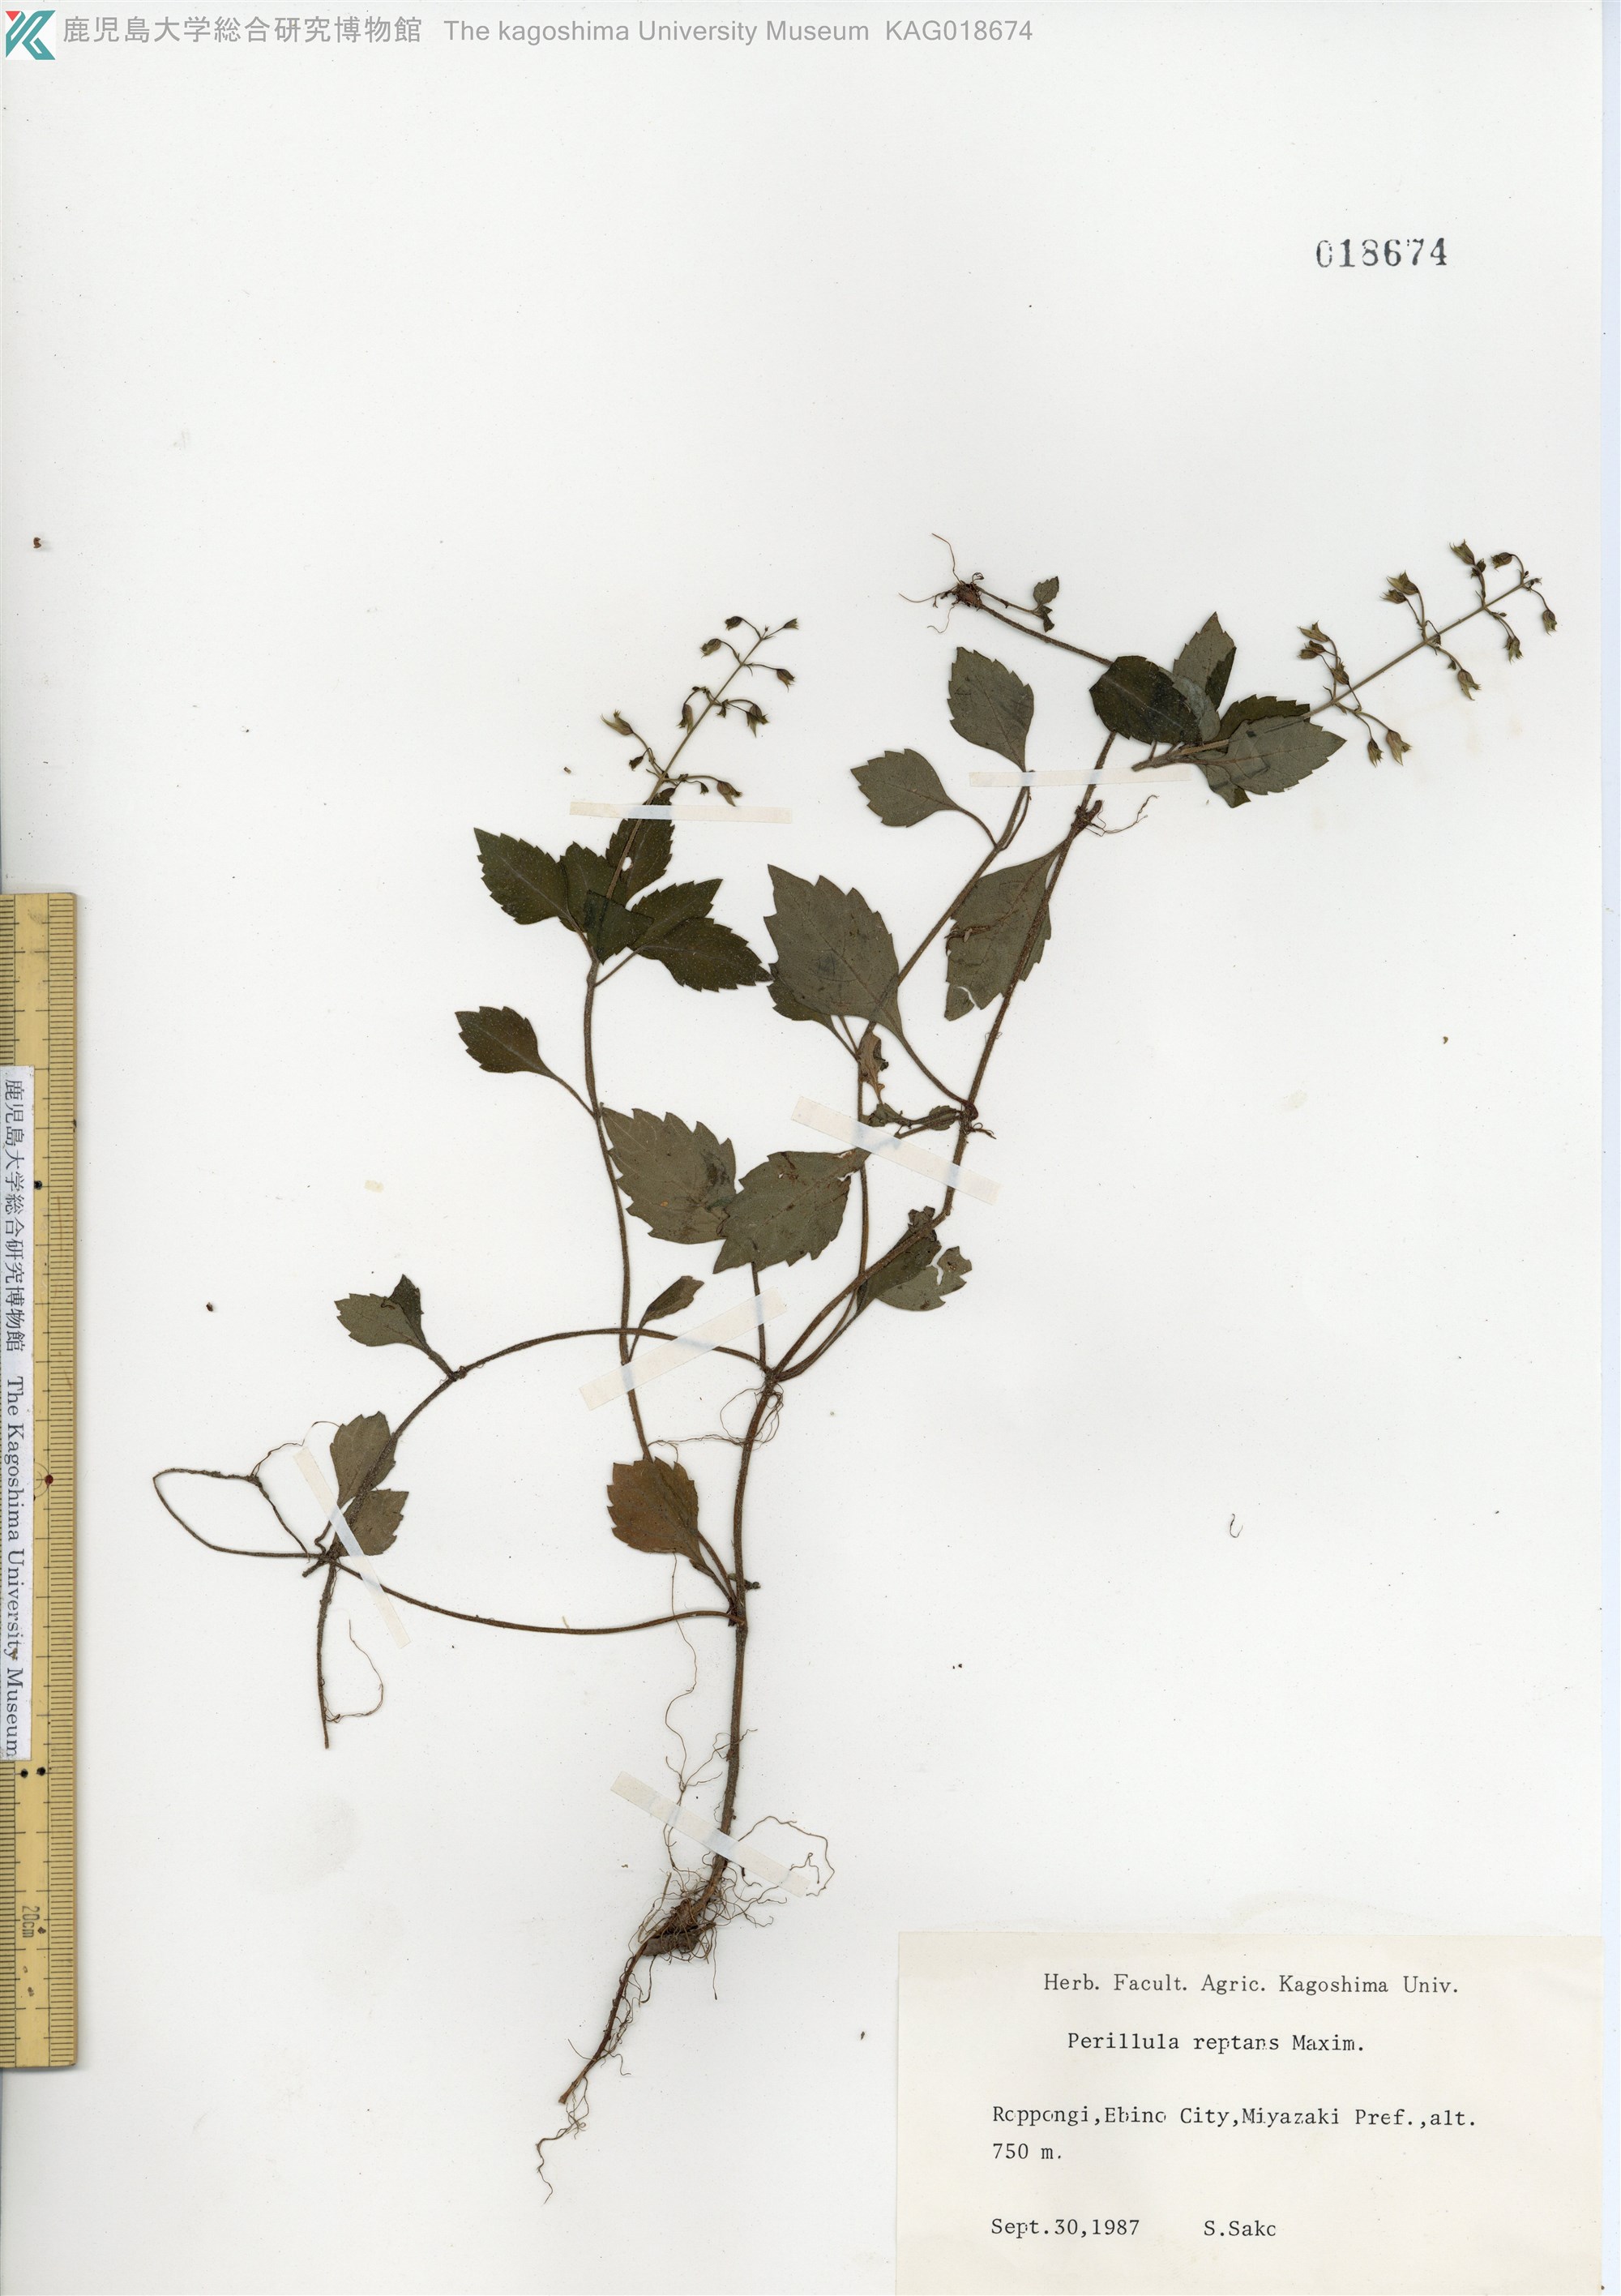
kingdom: Plantae
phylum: Tracheophyta
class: Magnoliopsida
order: Lamiales
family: Lamiaceae
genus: Perillula
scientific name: Perillula reptans
